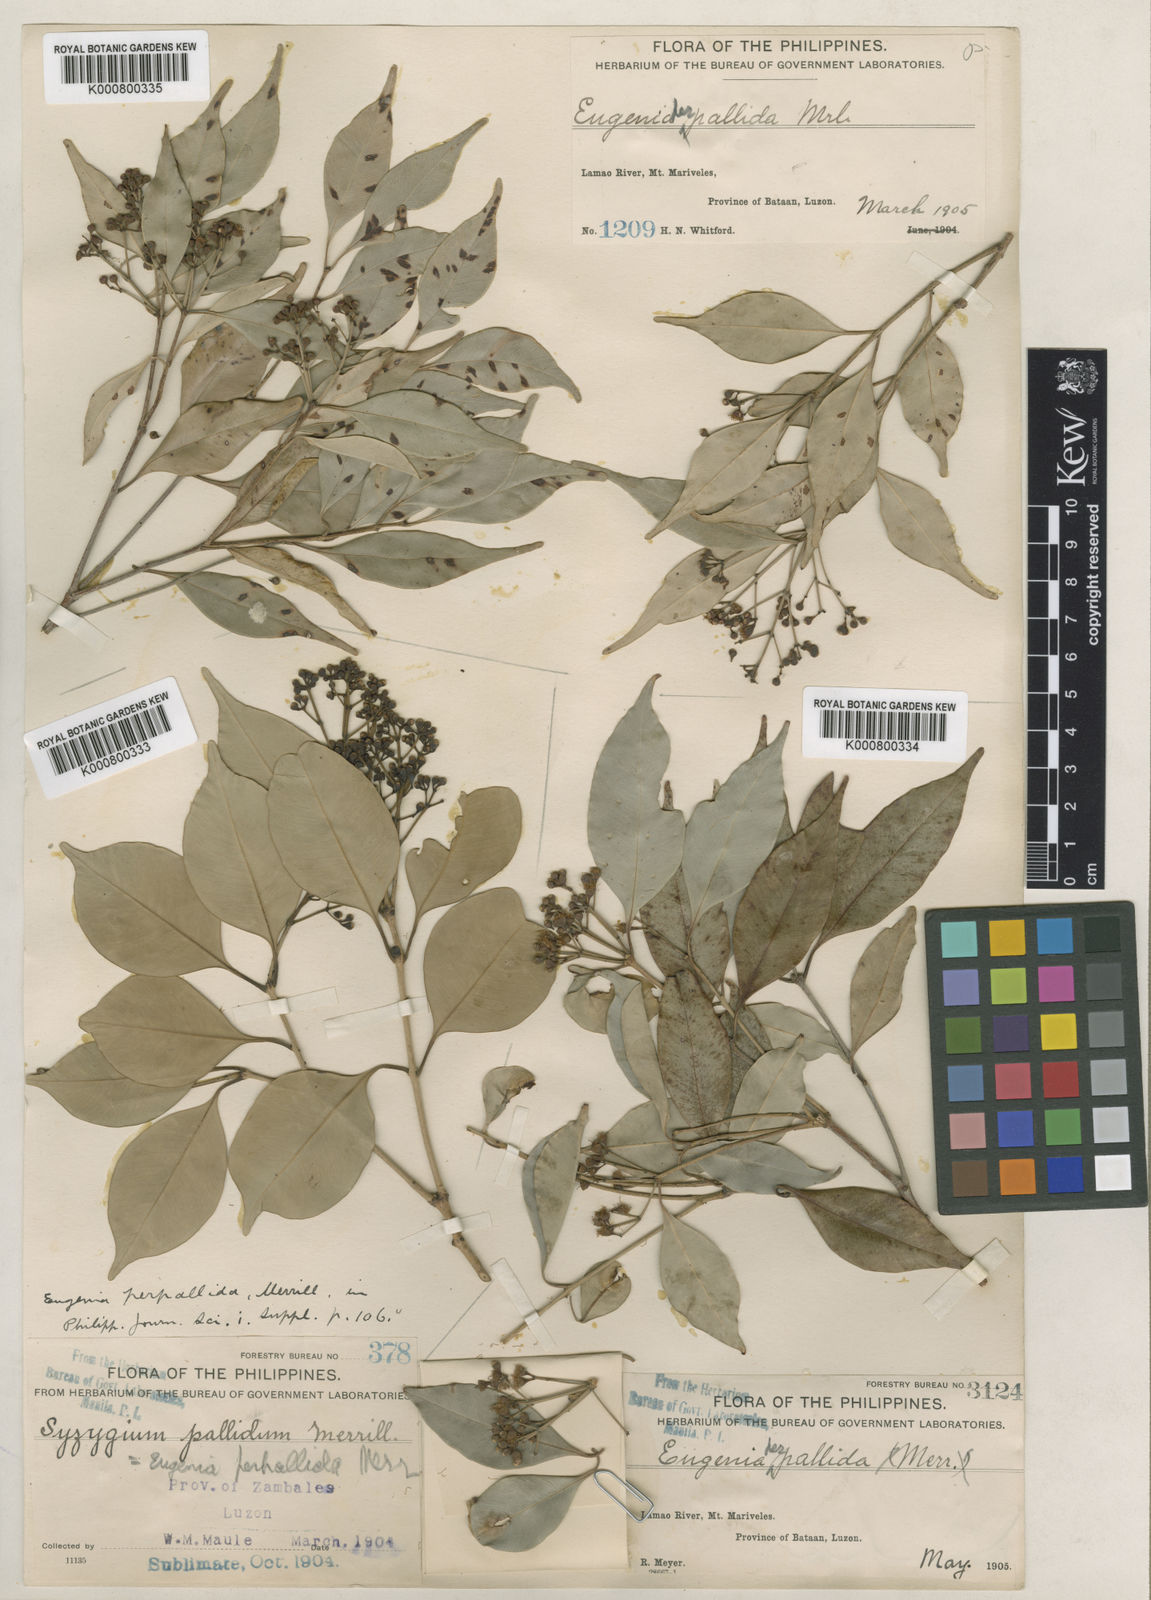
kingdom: Plantae
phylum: Tracheophyta
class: Magnoliopsida
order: Myrtales
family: Myrtaceae
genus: Syzygium
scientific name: Syzygium pallidum
